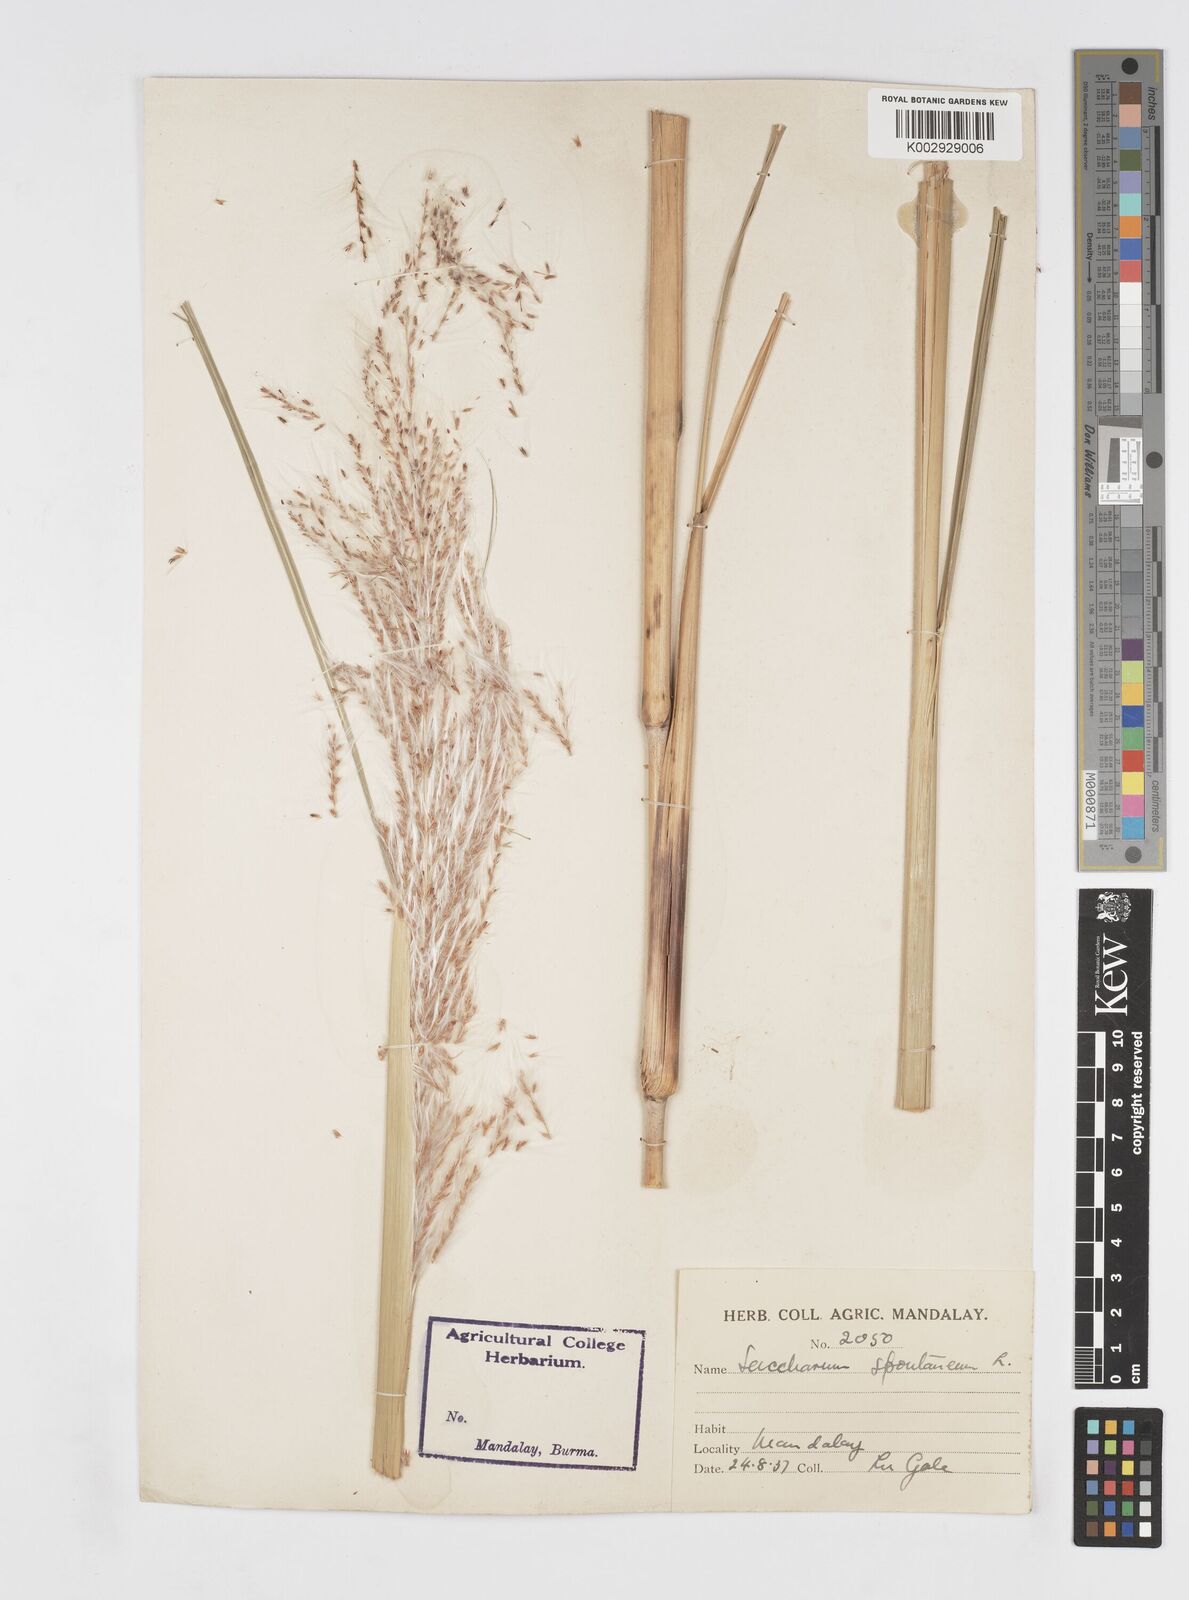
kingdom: Plantae
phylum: Tracheophyta
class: Liliopsida
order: Poales
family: Poaceae
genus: Saccharum
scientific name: Saccharum spontaneum
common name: Wild sugarcane
